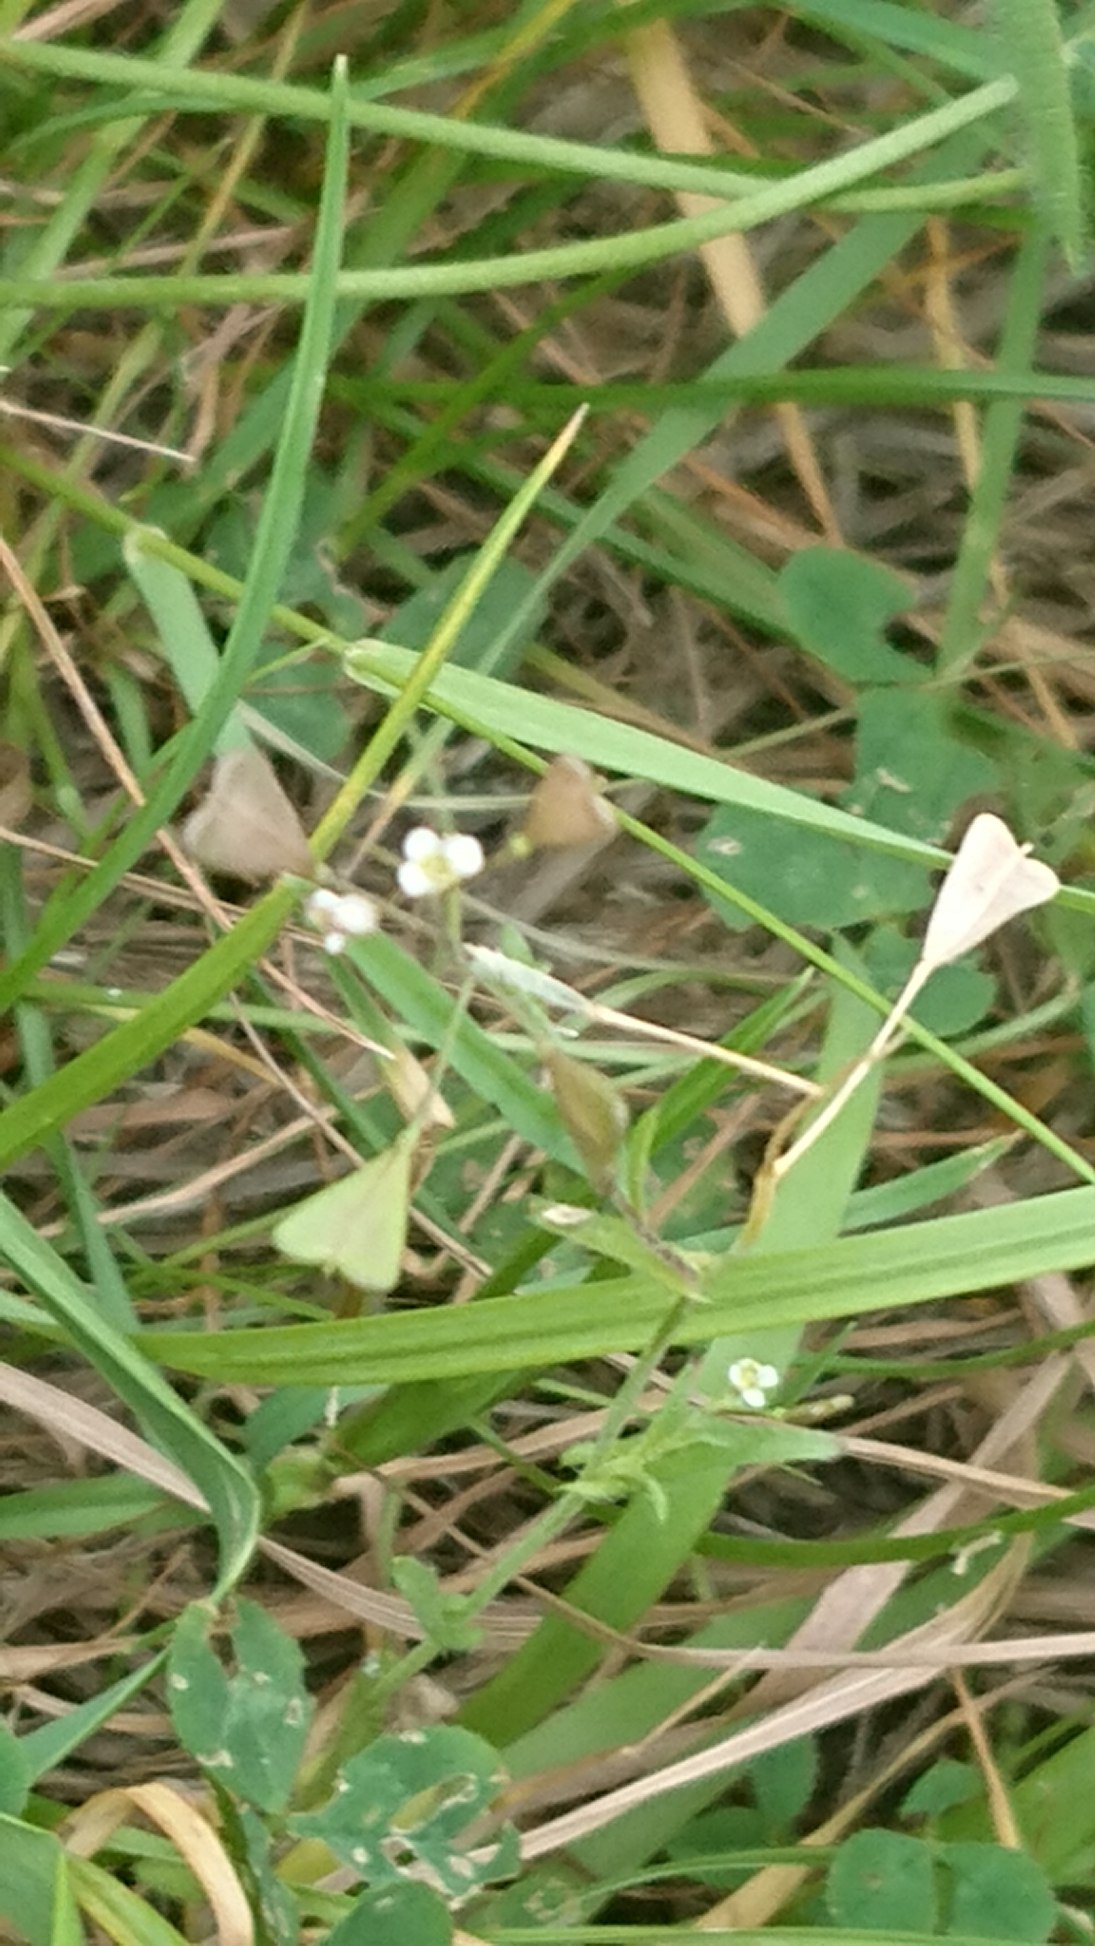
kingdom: Plantae
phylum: Tracheophyta
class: Magnoliopsida
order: Brassicales
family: Brassicaceae
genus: Capsella
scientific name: Capsella bursa-pastoris
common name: Hyrdetaske
